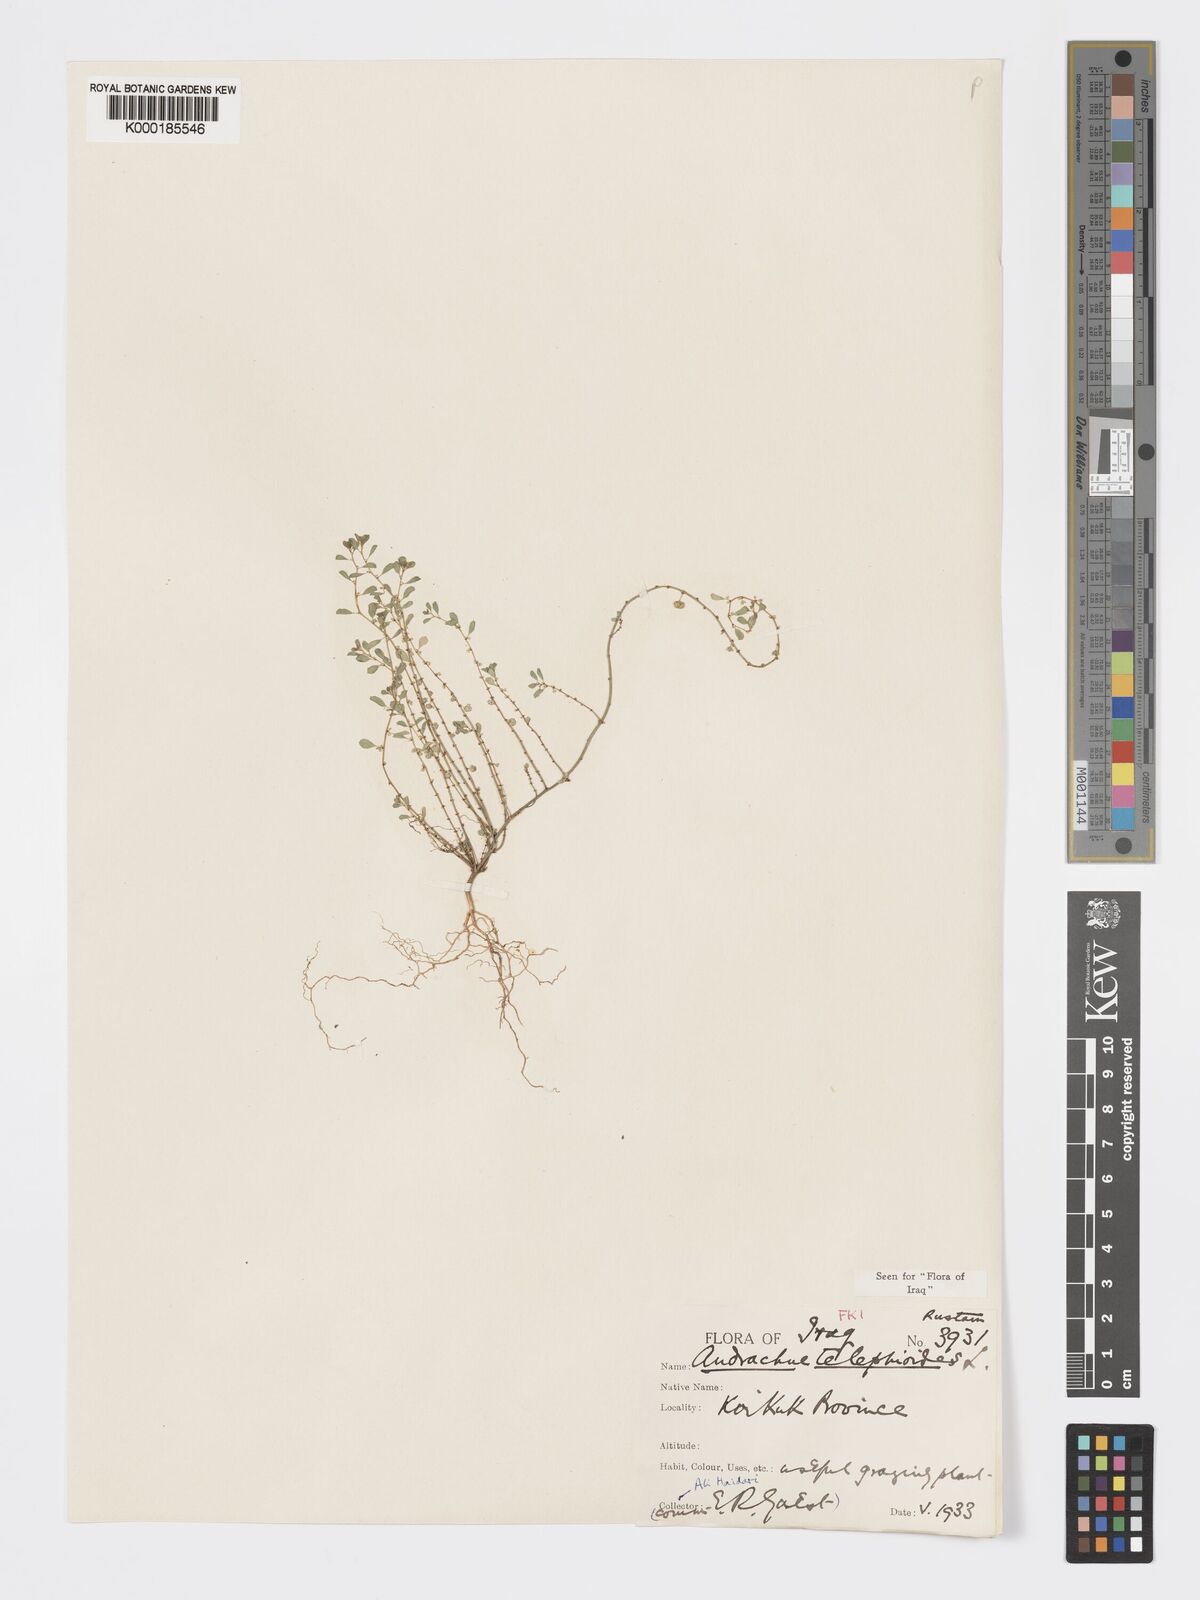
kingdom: Plantae
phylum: Tracheophyta
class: Magnoliopsida
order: Malpighiales
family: Phyllanthaceae
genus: Andrachne
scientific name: Andrachne telephioides
